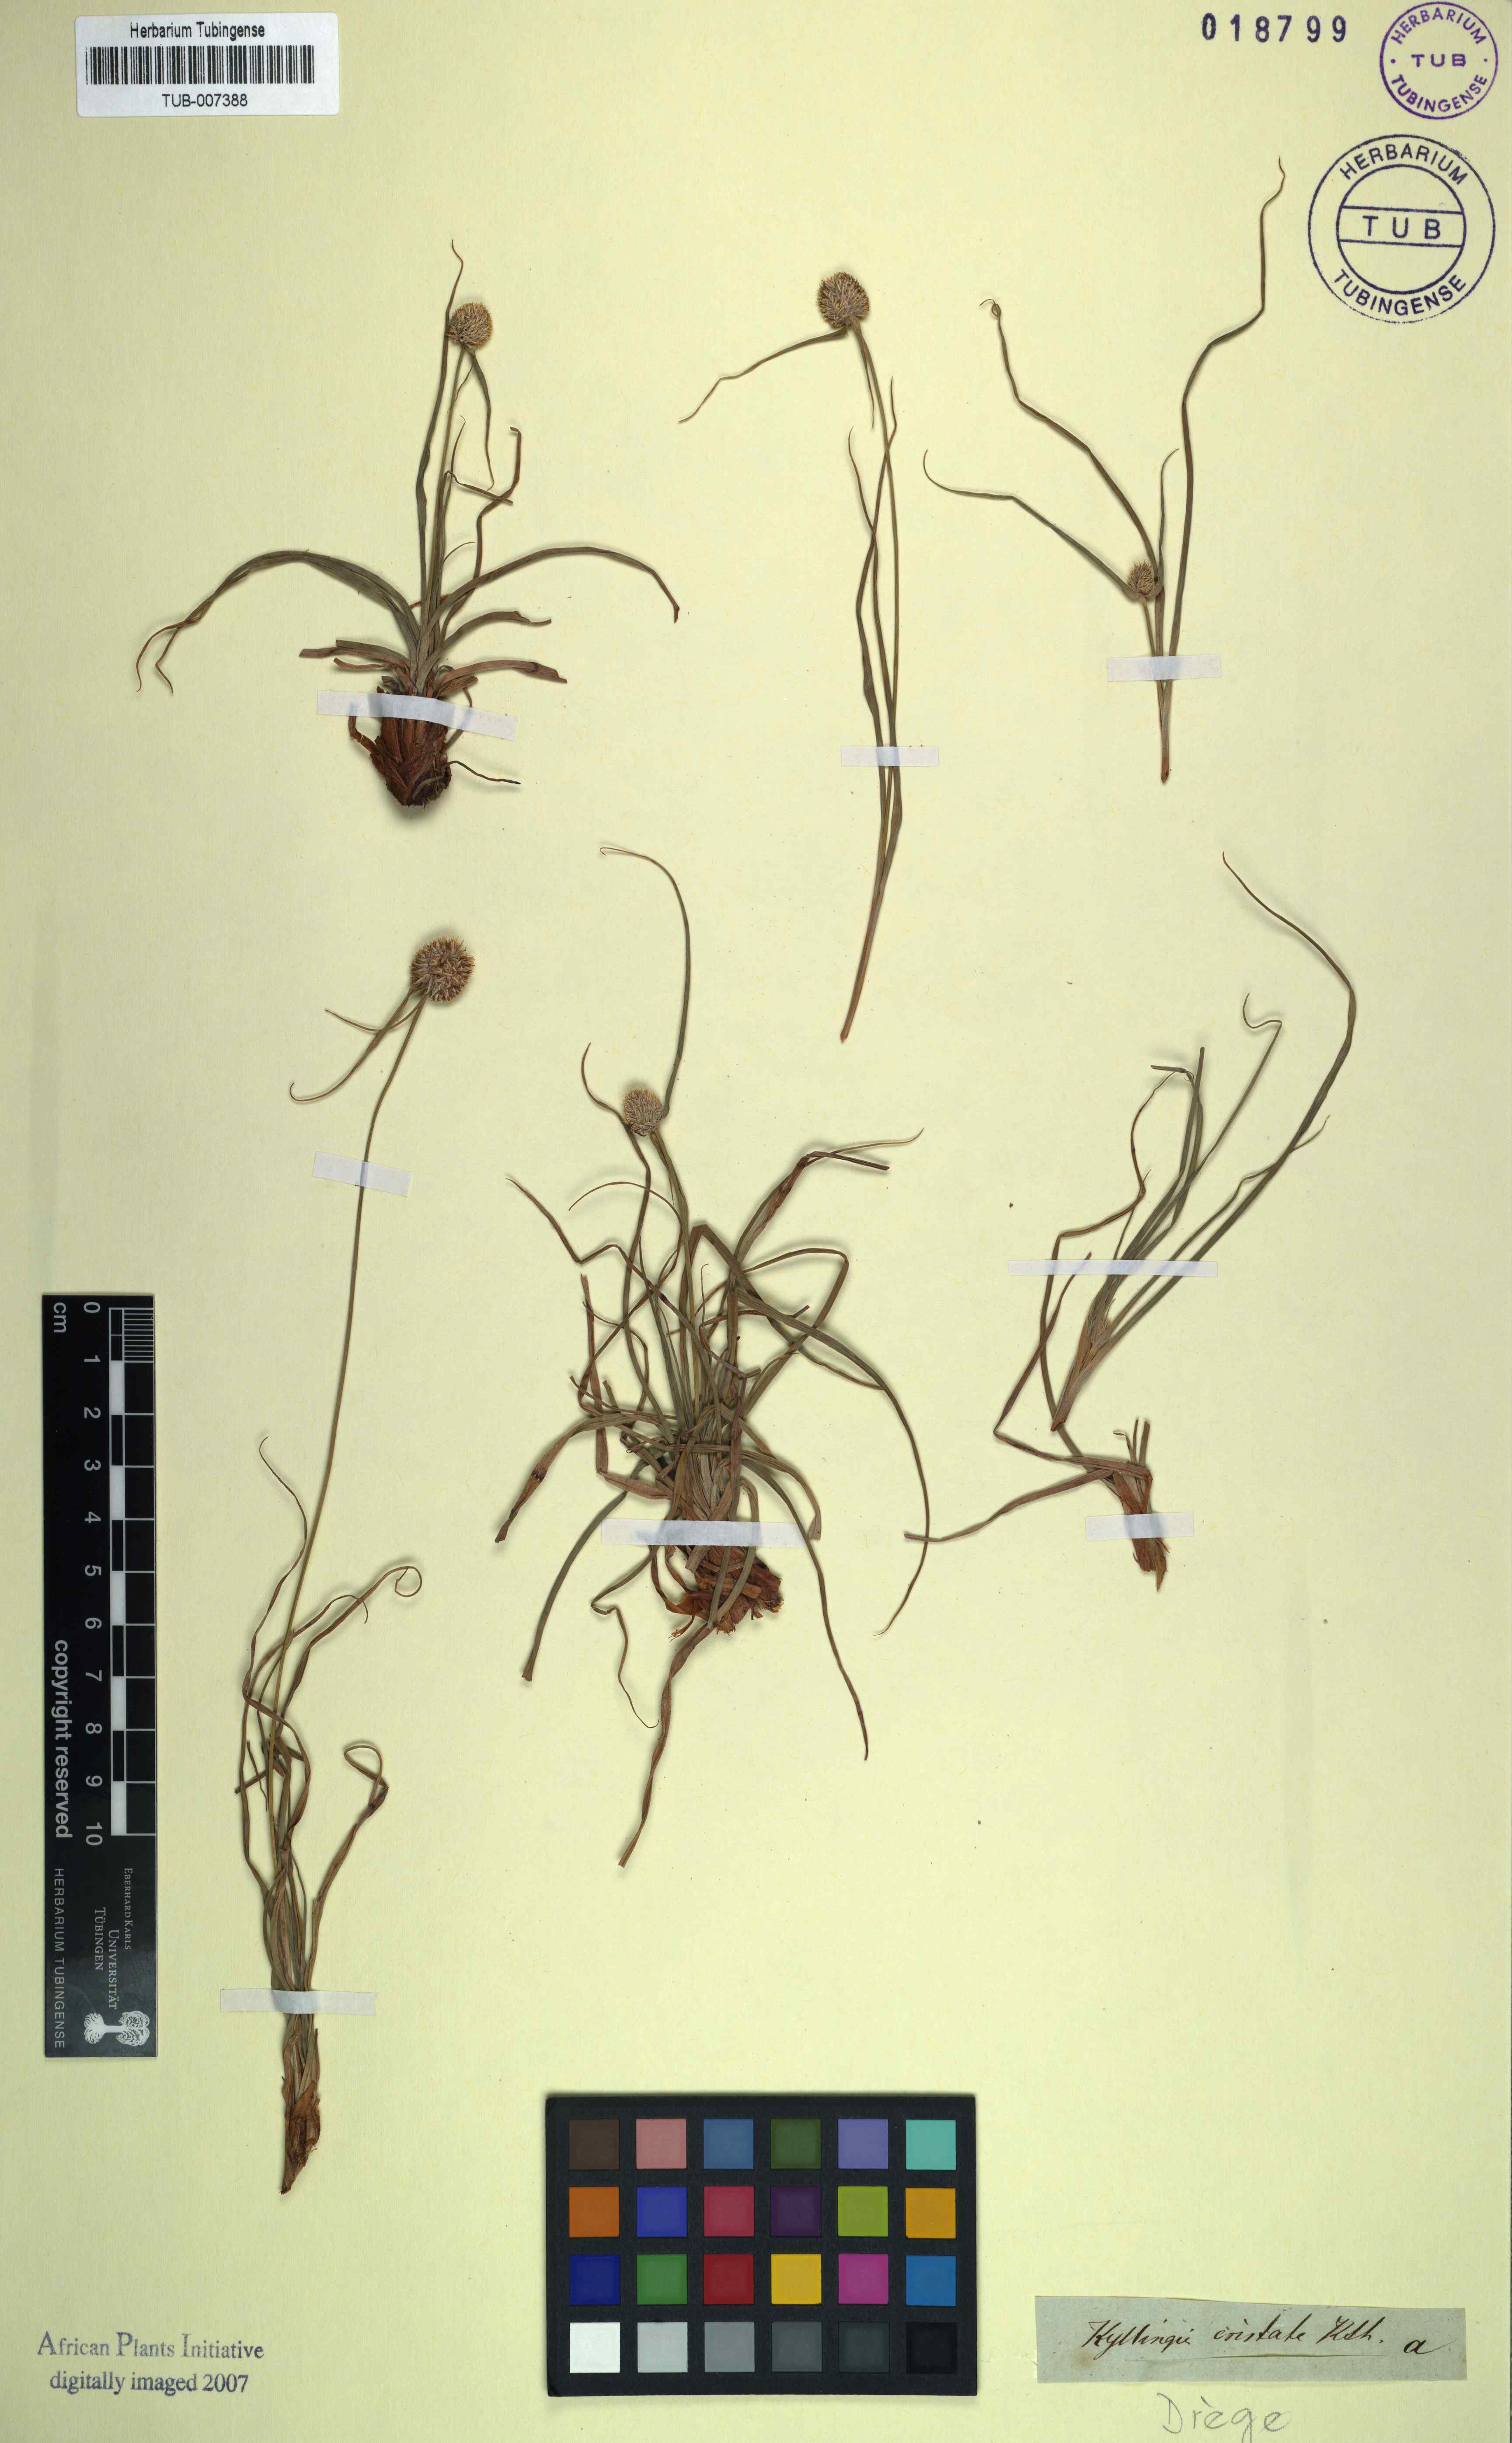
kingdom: Plantae
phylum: Tracheophyta
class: Liliopsida
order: Poales
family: Cyperaceae
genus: Cyperus
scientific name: Cyperus alatus
